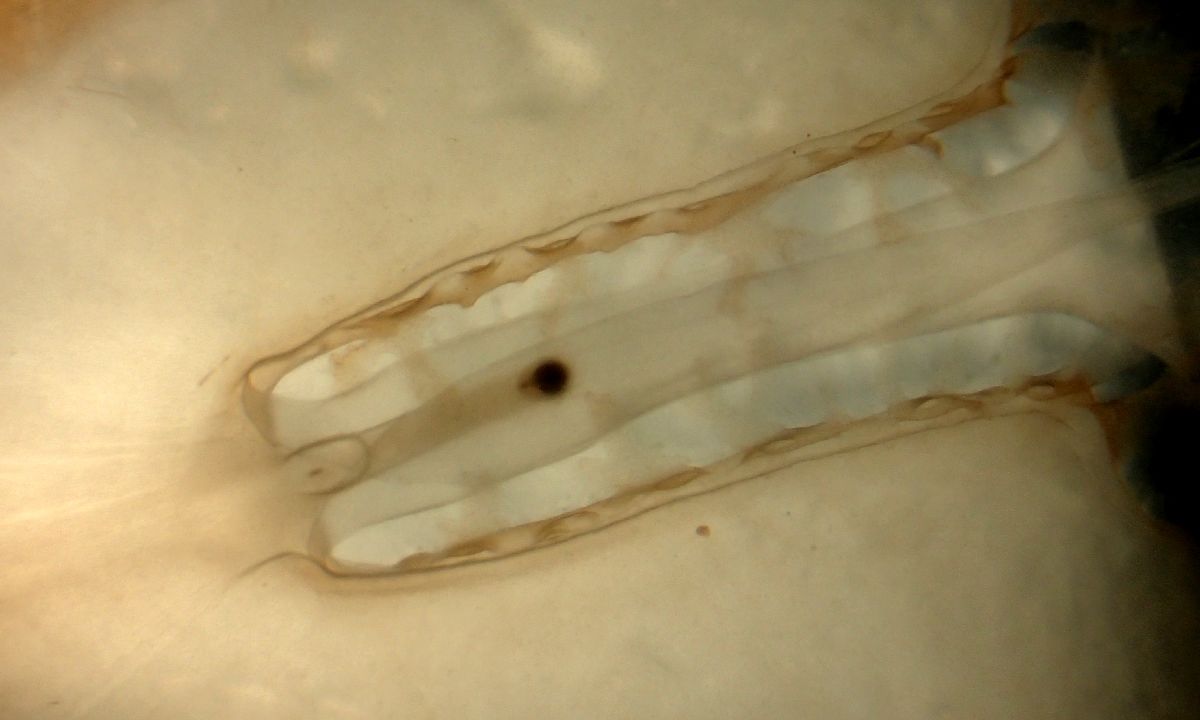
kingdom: Animalia
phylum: Cnidaria
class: Scyphozoa
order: Semaeostomeae
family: Cyaneidae
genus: Cyanea
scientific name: Cyanea tzetlinii
